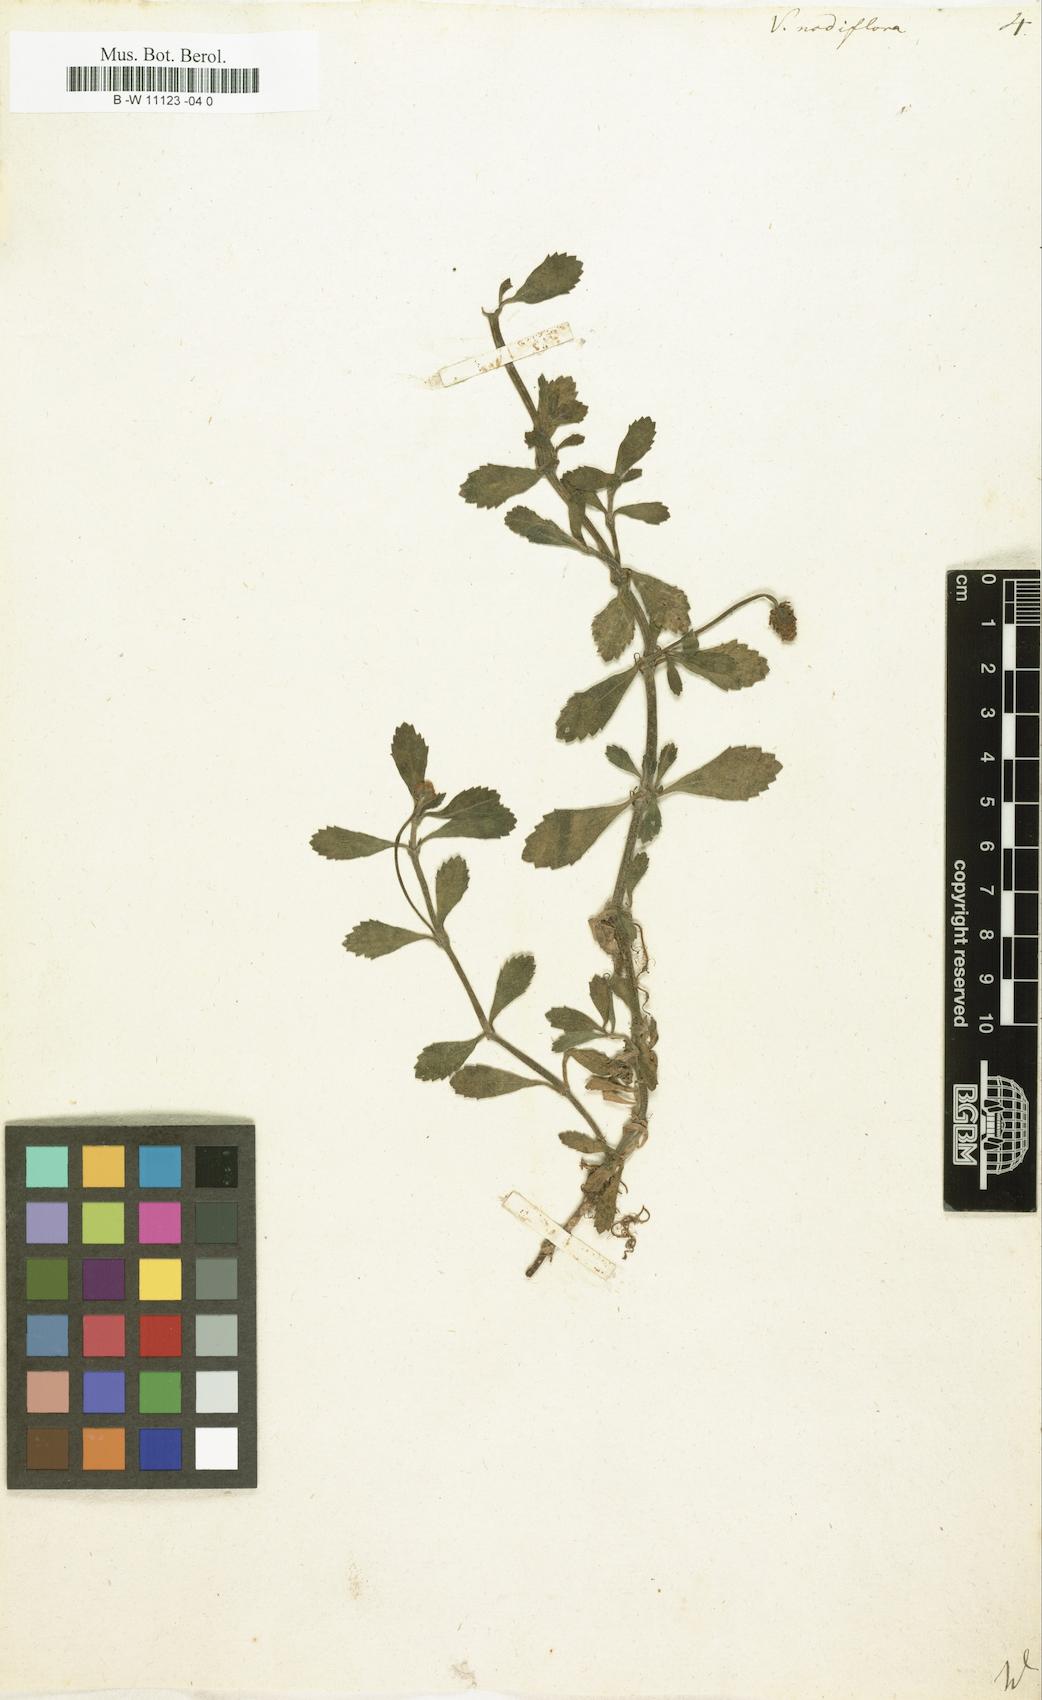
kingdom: Plantae
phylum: Tracheophyta
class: Magnoliopsida
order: Lamiales
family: Verbenaceae
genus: Verbena
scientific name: Verbena nodiflora
